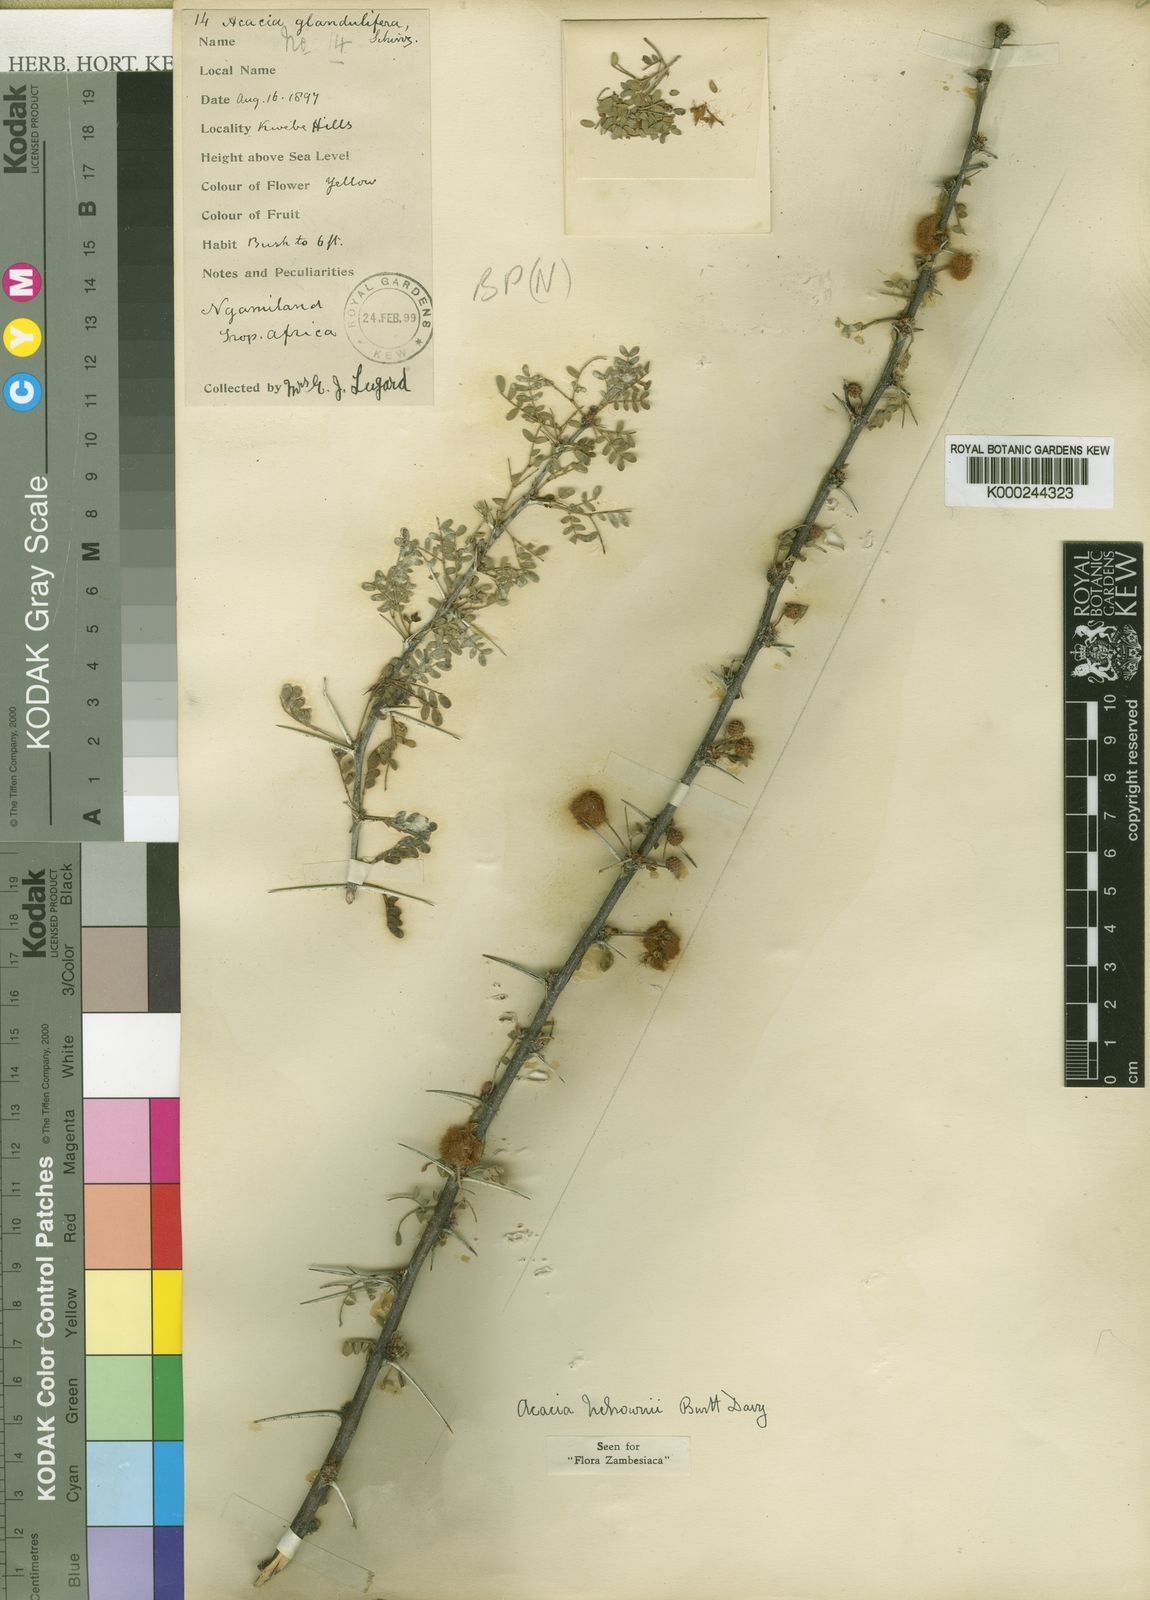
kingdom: Plantae
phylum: Tracheophyta
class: Magnoliopsida
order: Fabales
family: Fabaceae
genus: Vachellia
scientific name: Vachellia nebrownii
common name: Water acacia
